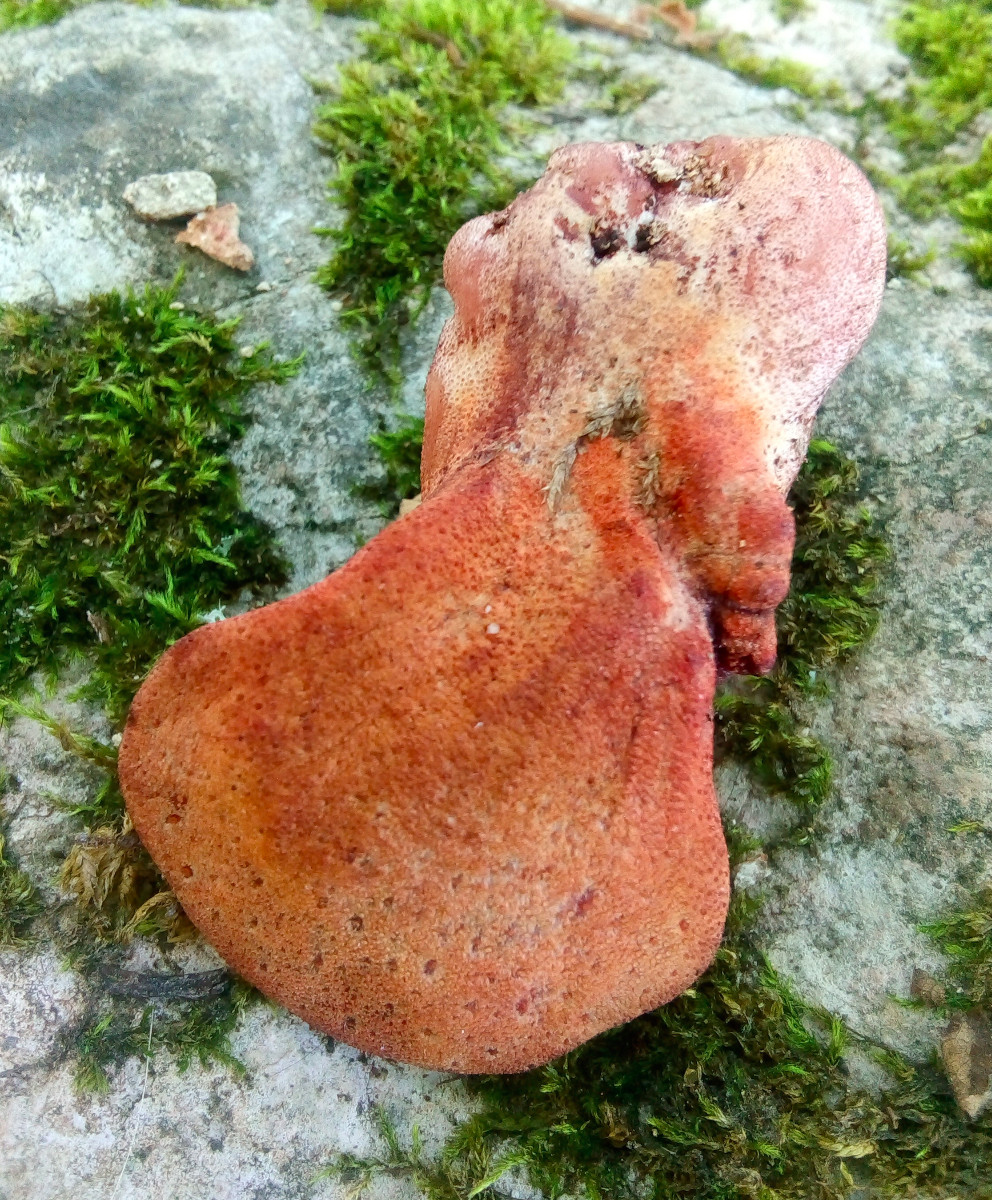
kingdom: Fungi
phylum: Basidiomycota
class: Agaricomycetes
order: Agaricales
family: Fistulinaceae
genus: Fistulina
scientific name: Fistulina hepatica
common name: oksetunge
